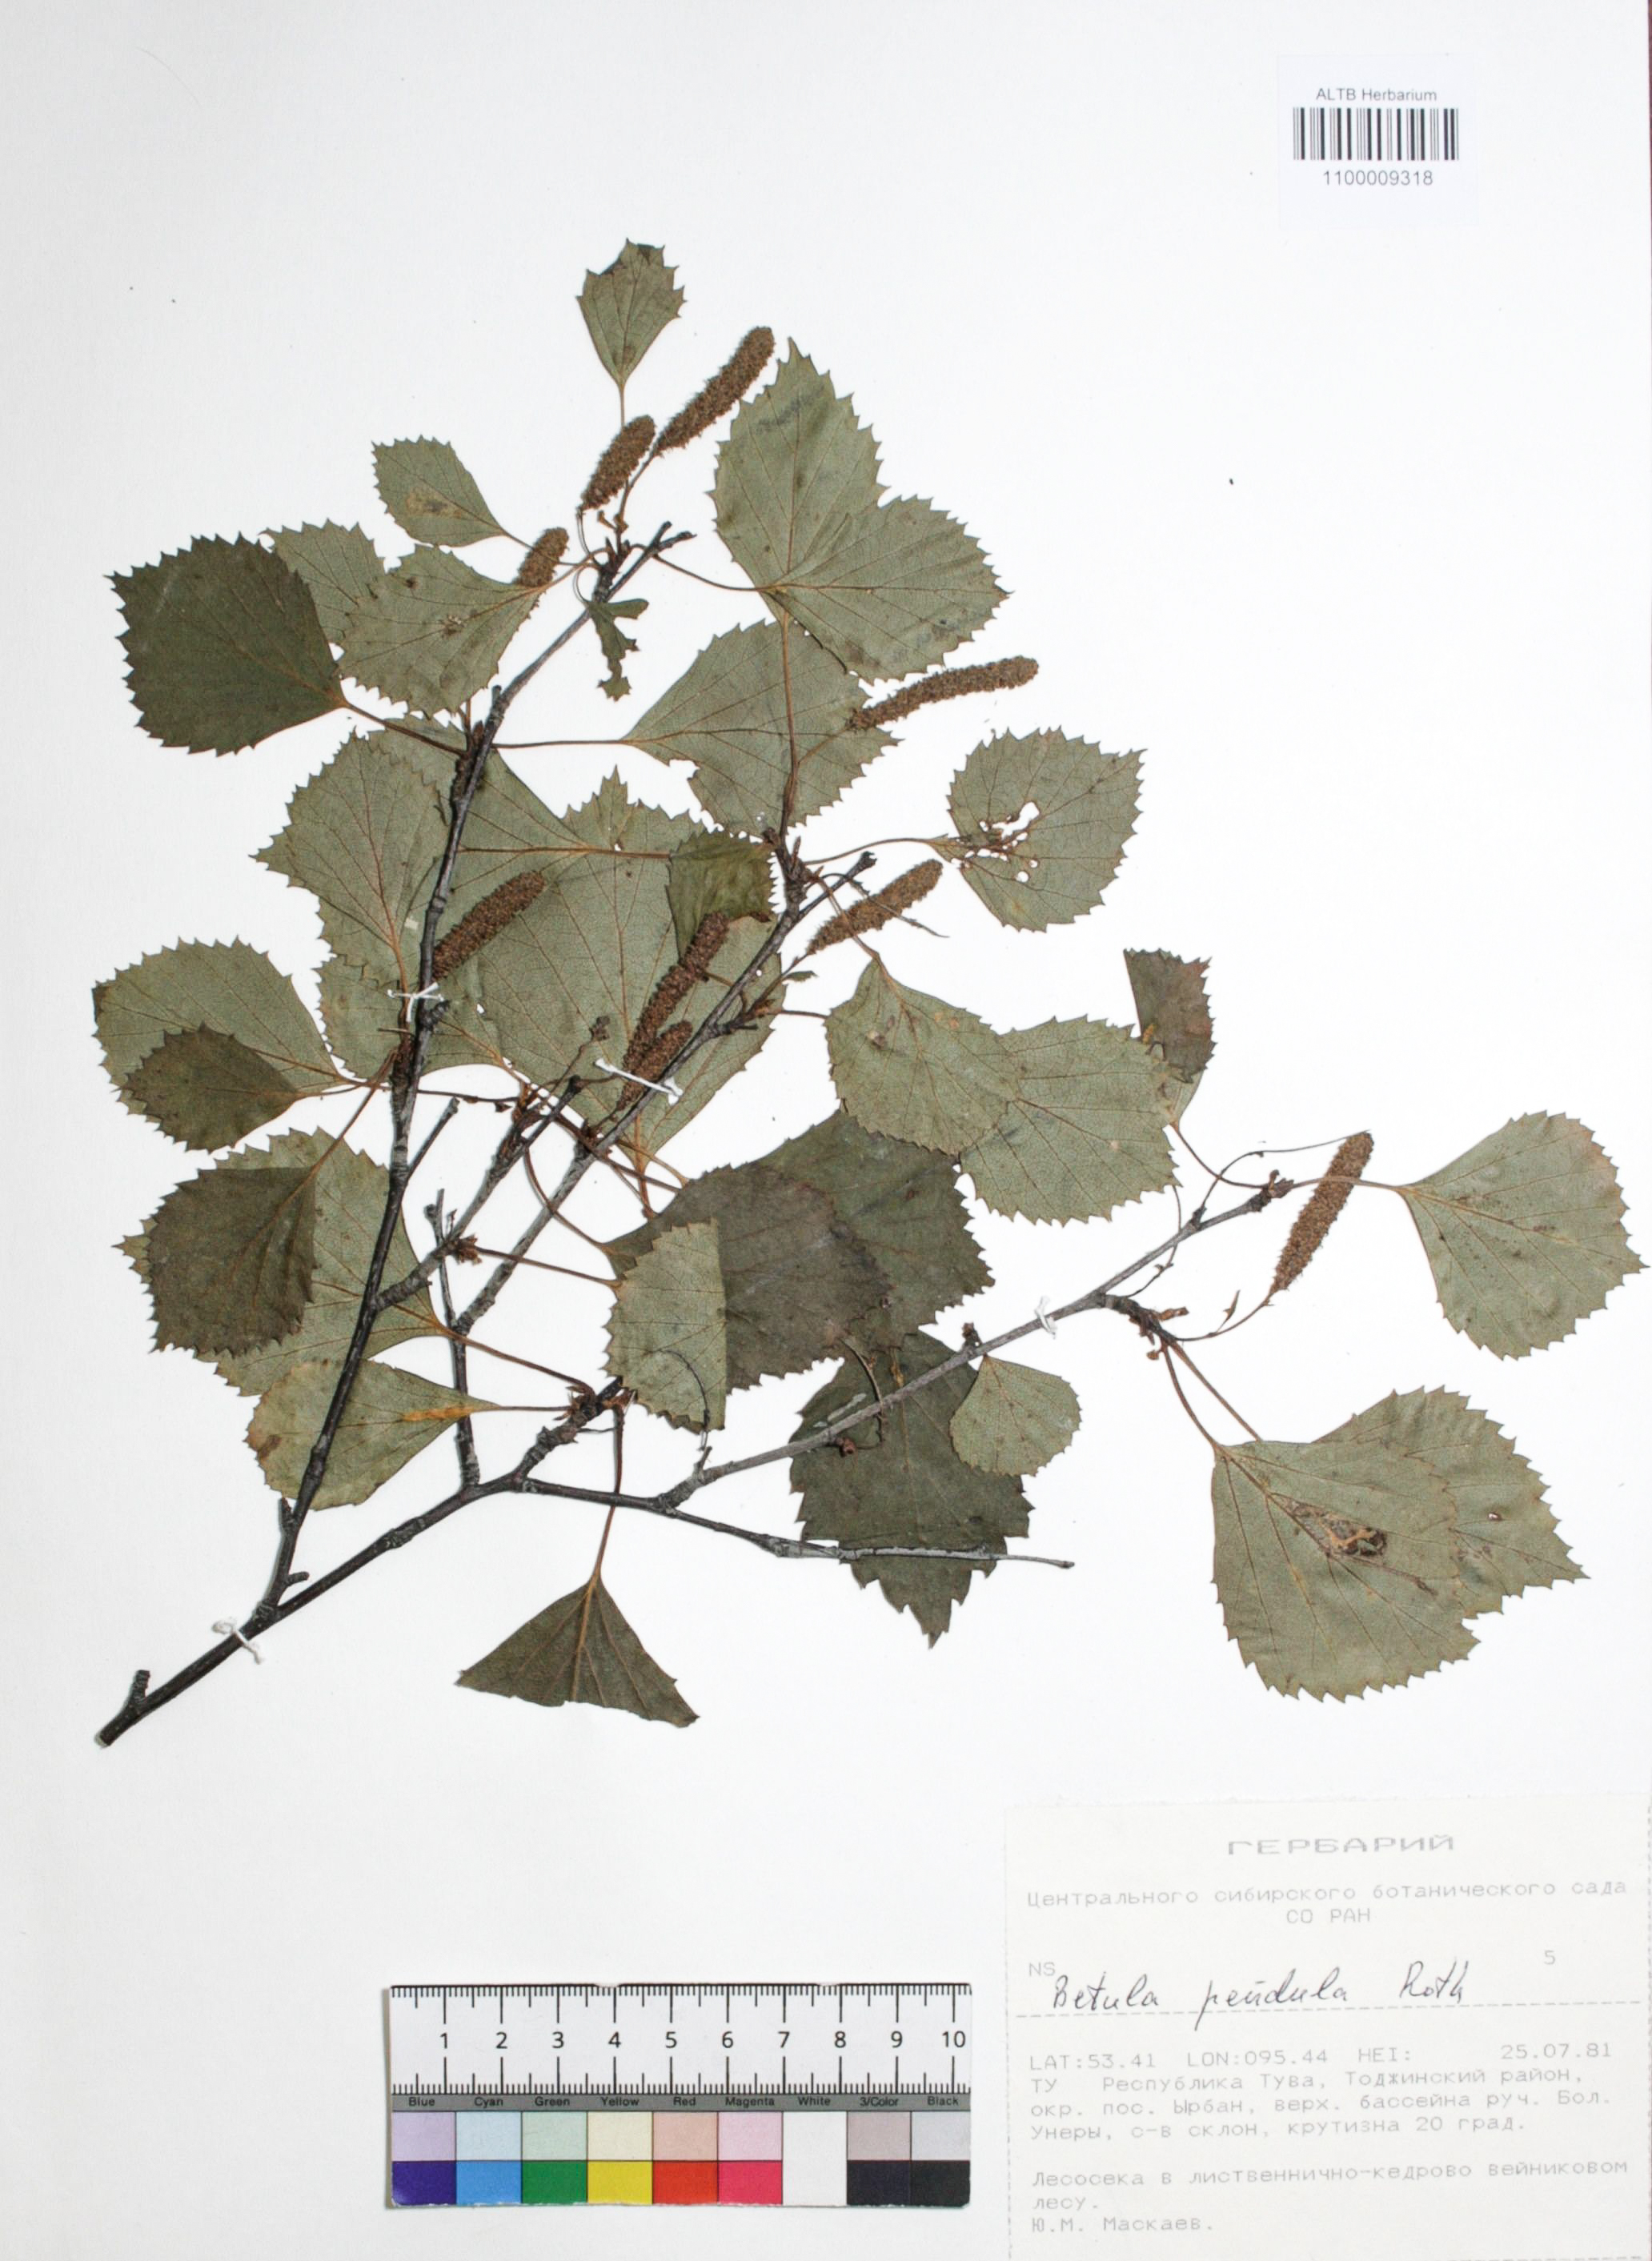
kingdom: Plantae
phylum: Tracheophyta
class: Magnoliopsida
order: Fagales
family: Betulaceae
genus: Betula
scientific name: Betula pendula
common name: Silver birch
